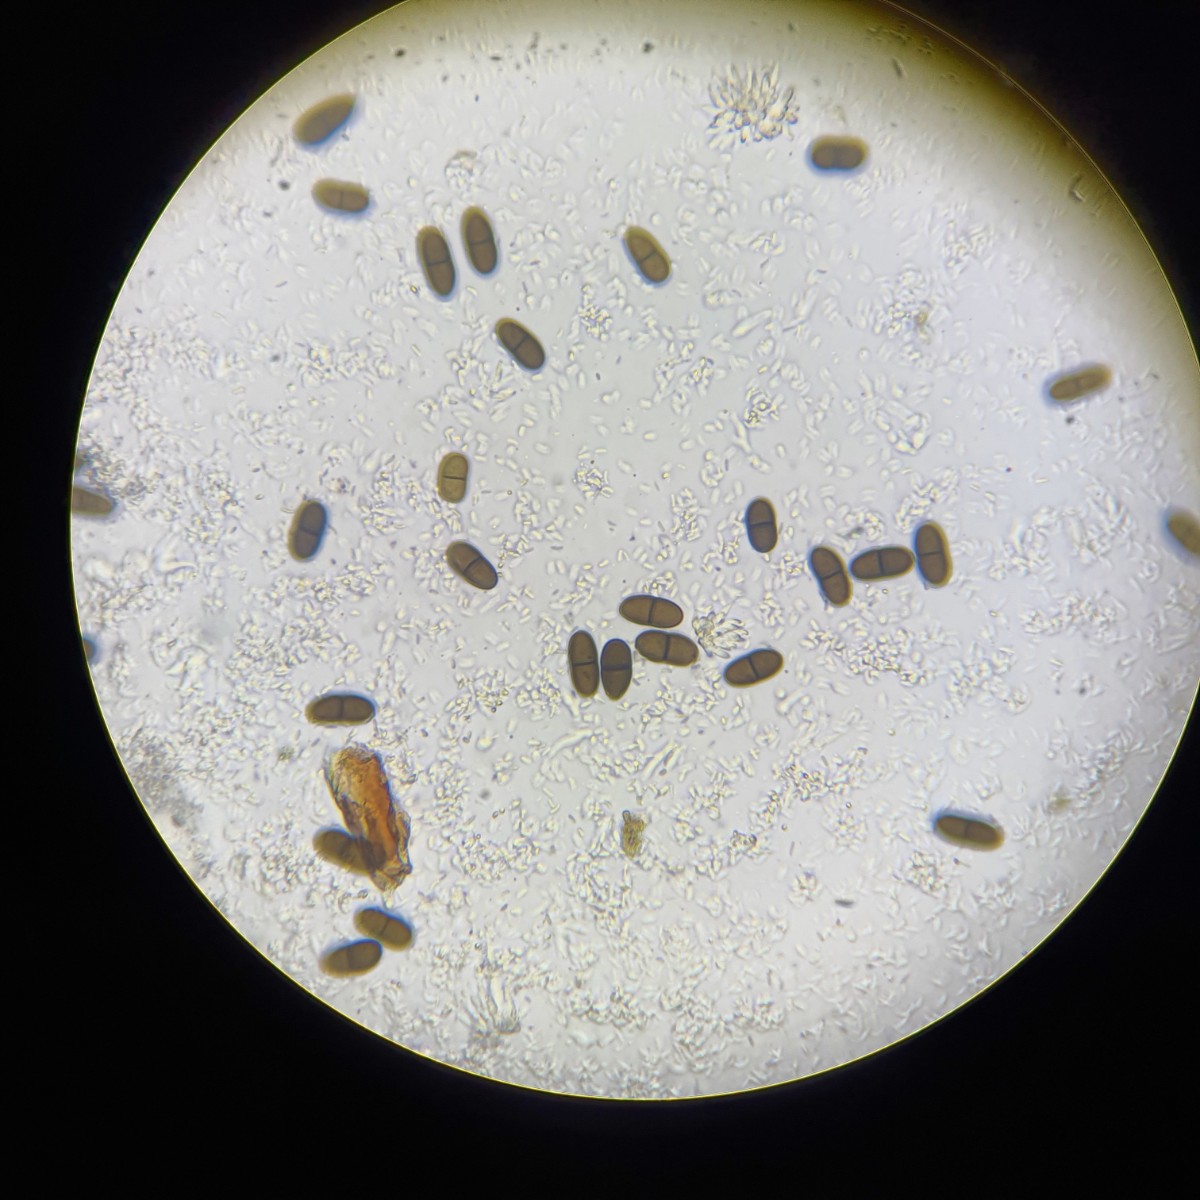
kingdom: Fungi
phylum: Ascomycota
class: Dothideomycetes
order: Botryosphaeriales
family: Botryosphaeriaceae
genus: Diplodia
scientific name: Diplodia coryli
